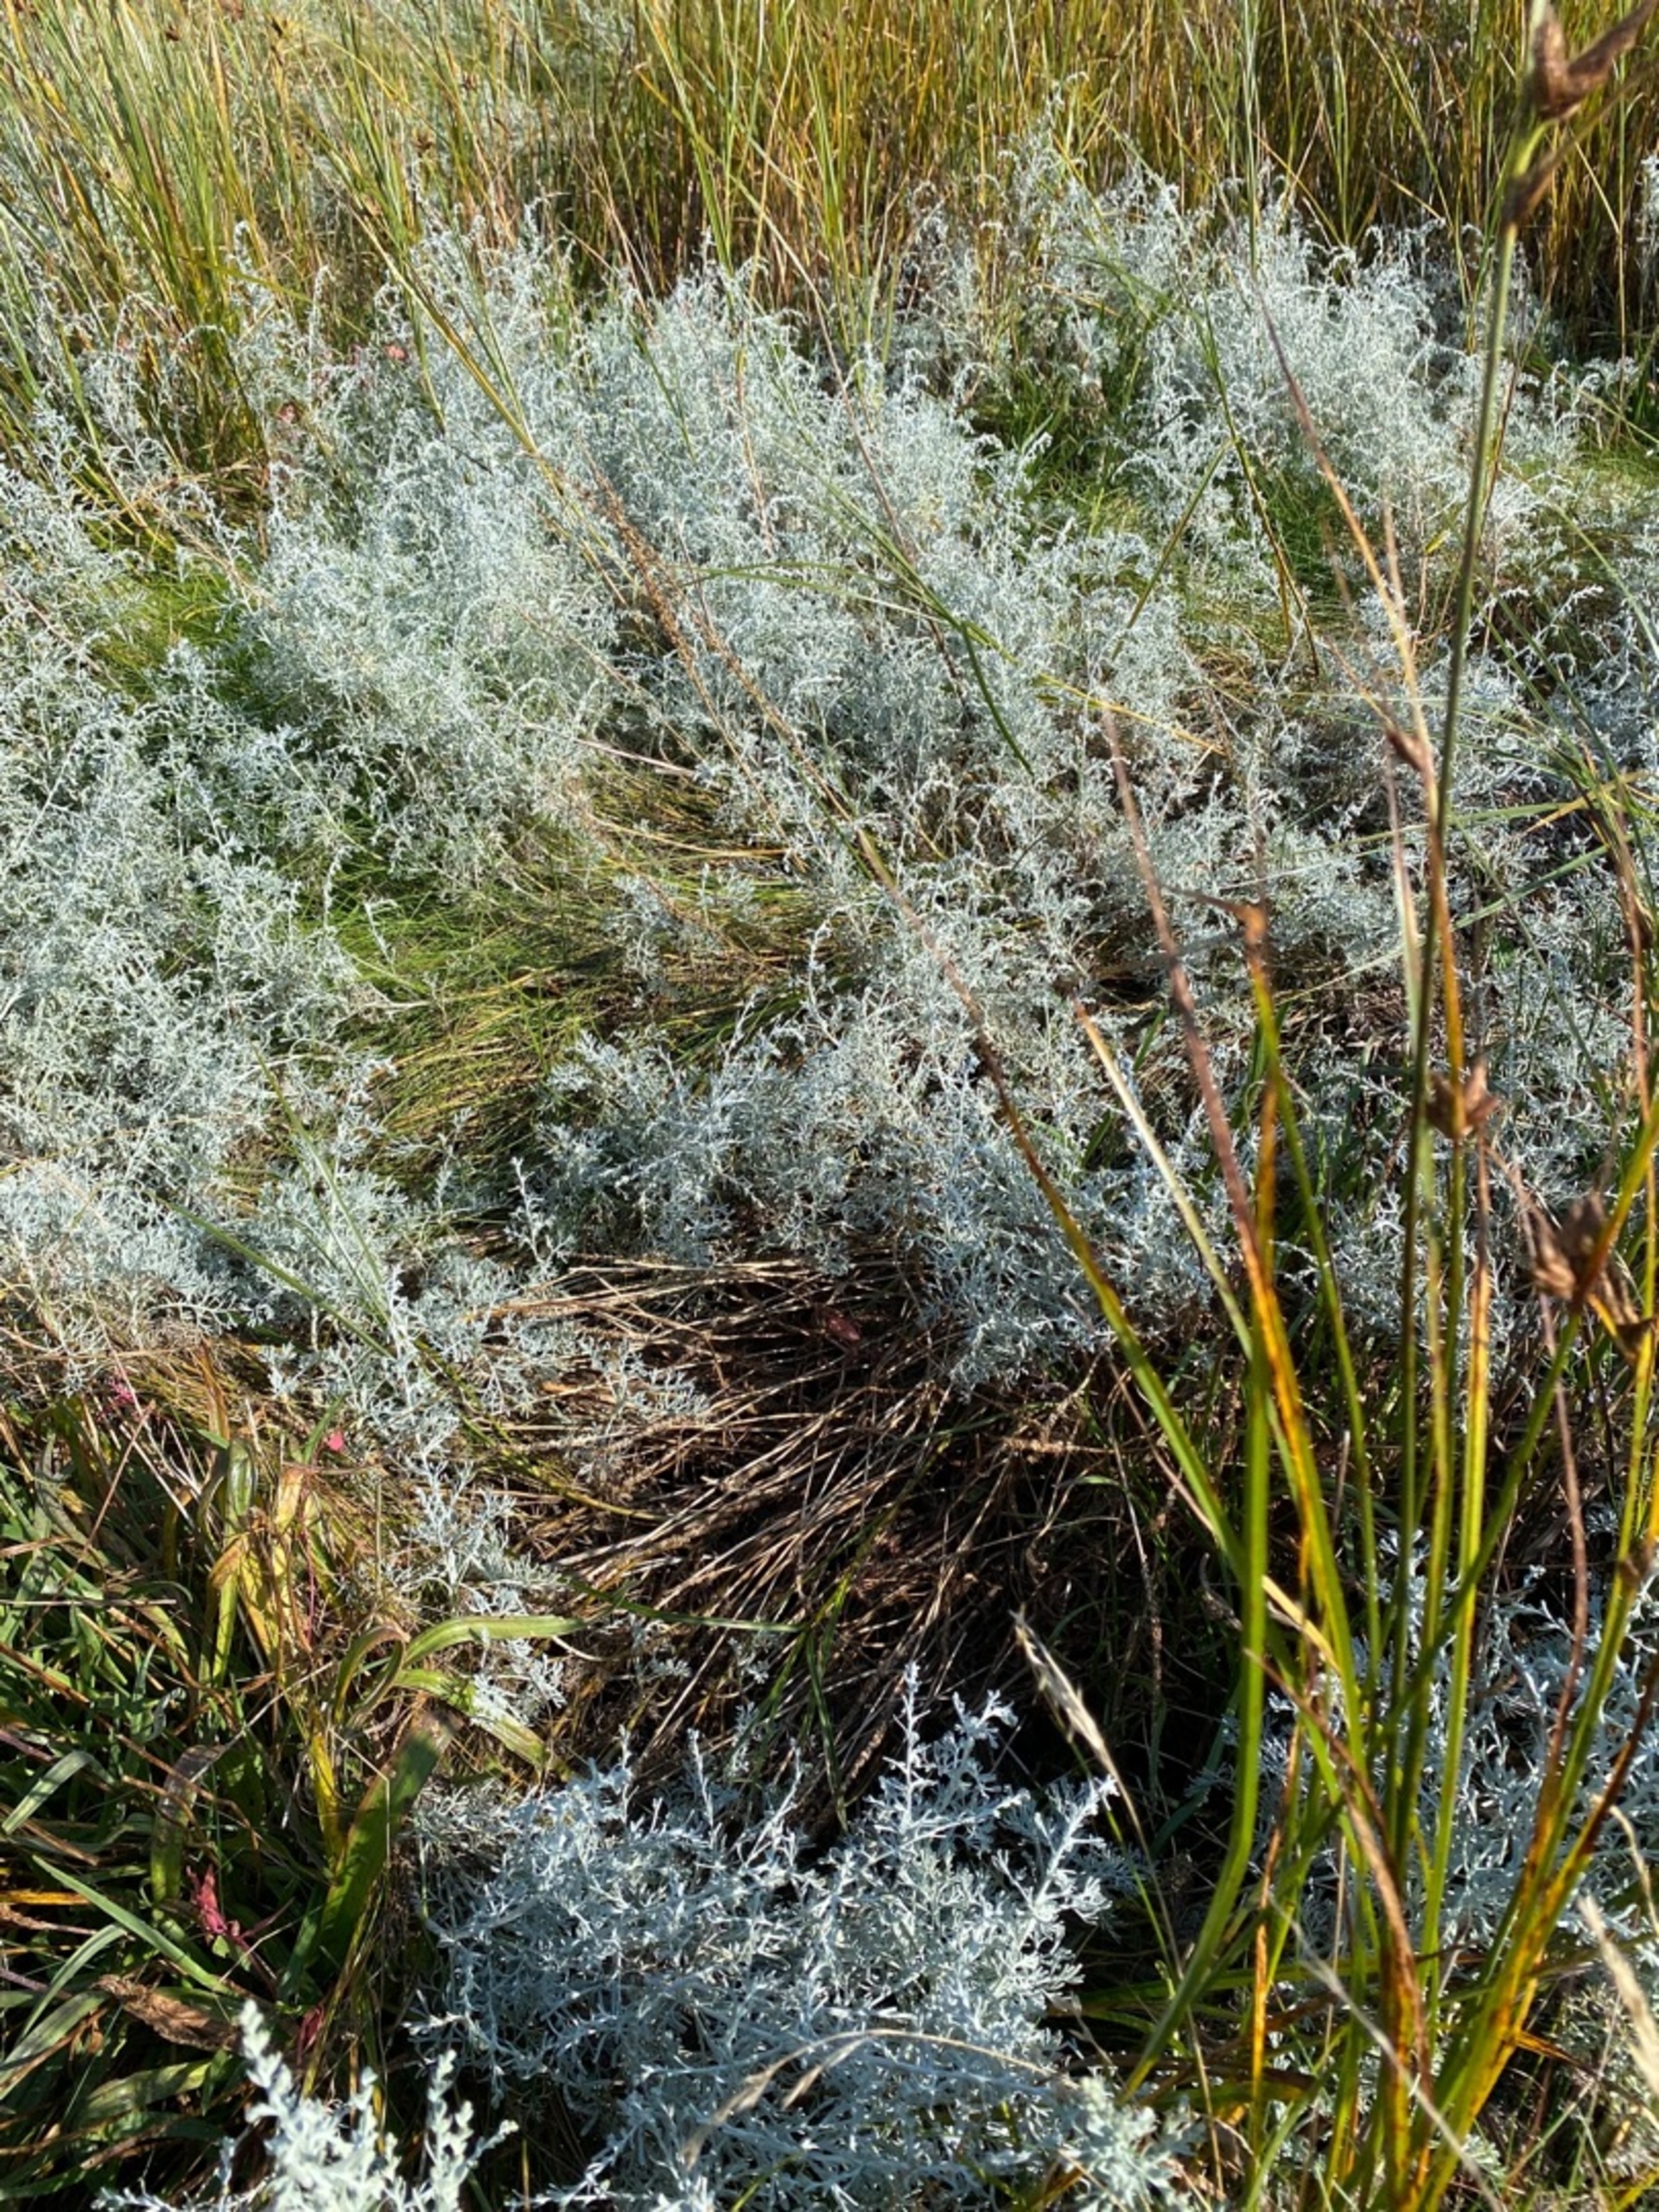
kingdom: Plantae
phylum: Tracheophyta
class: Magnoliopsida
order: Asterales
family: Asteraceae
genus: Artemisia
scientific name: Artemisia maritima
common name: Strandmalurt
